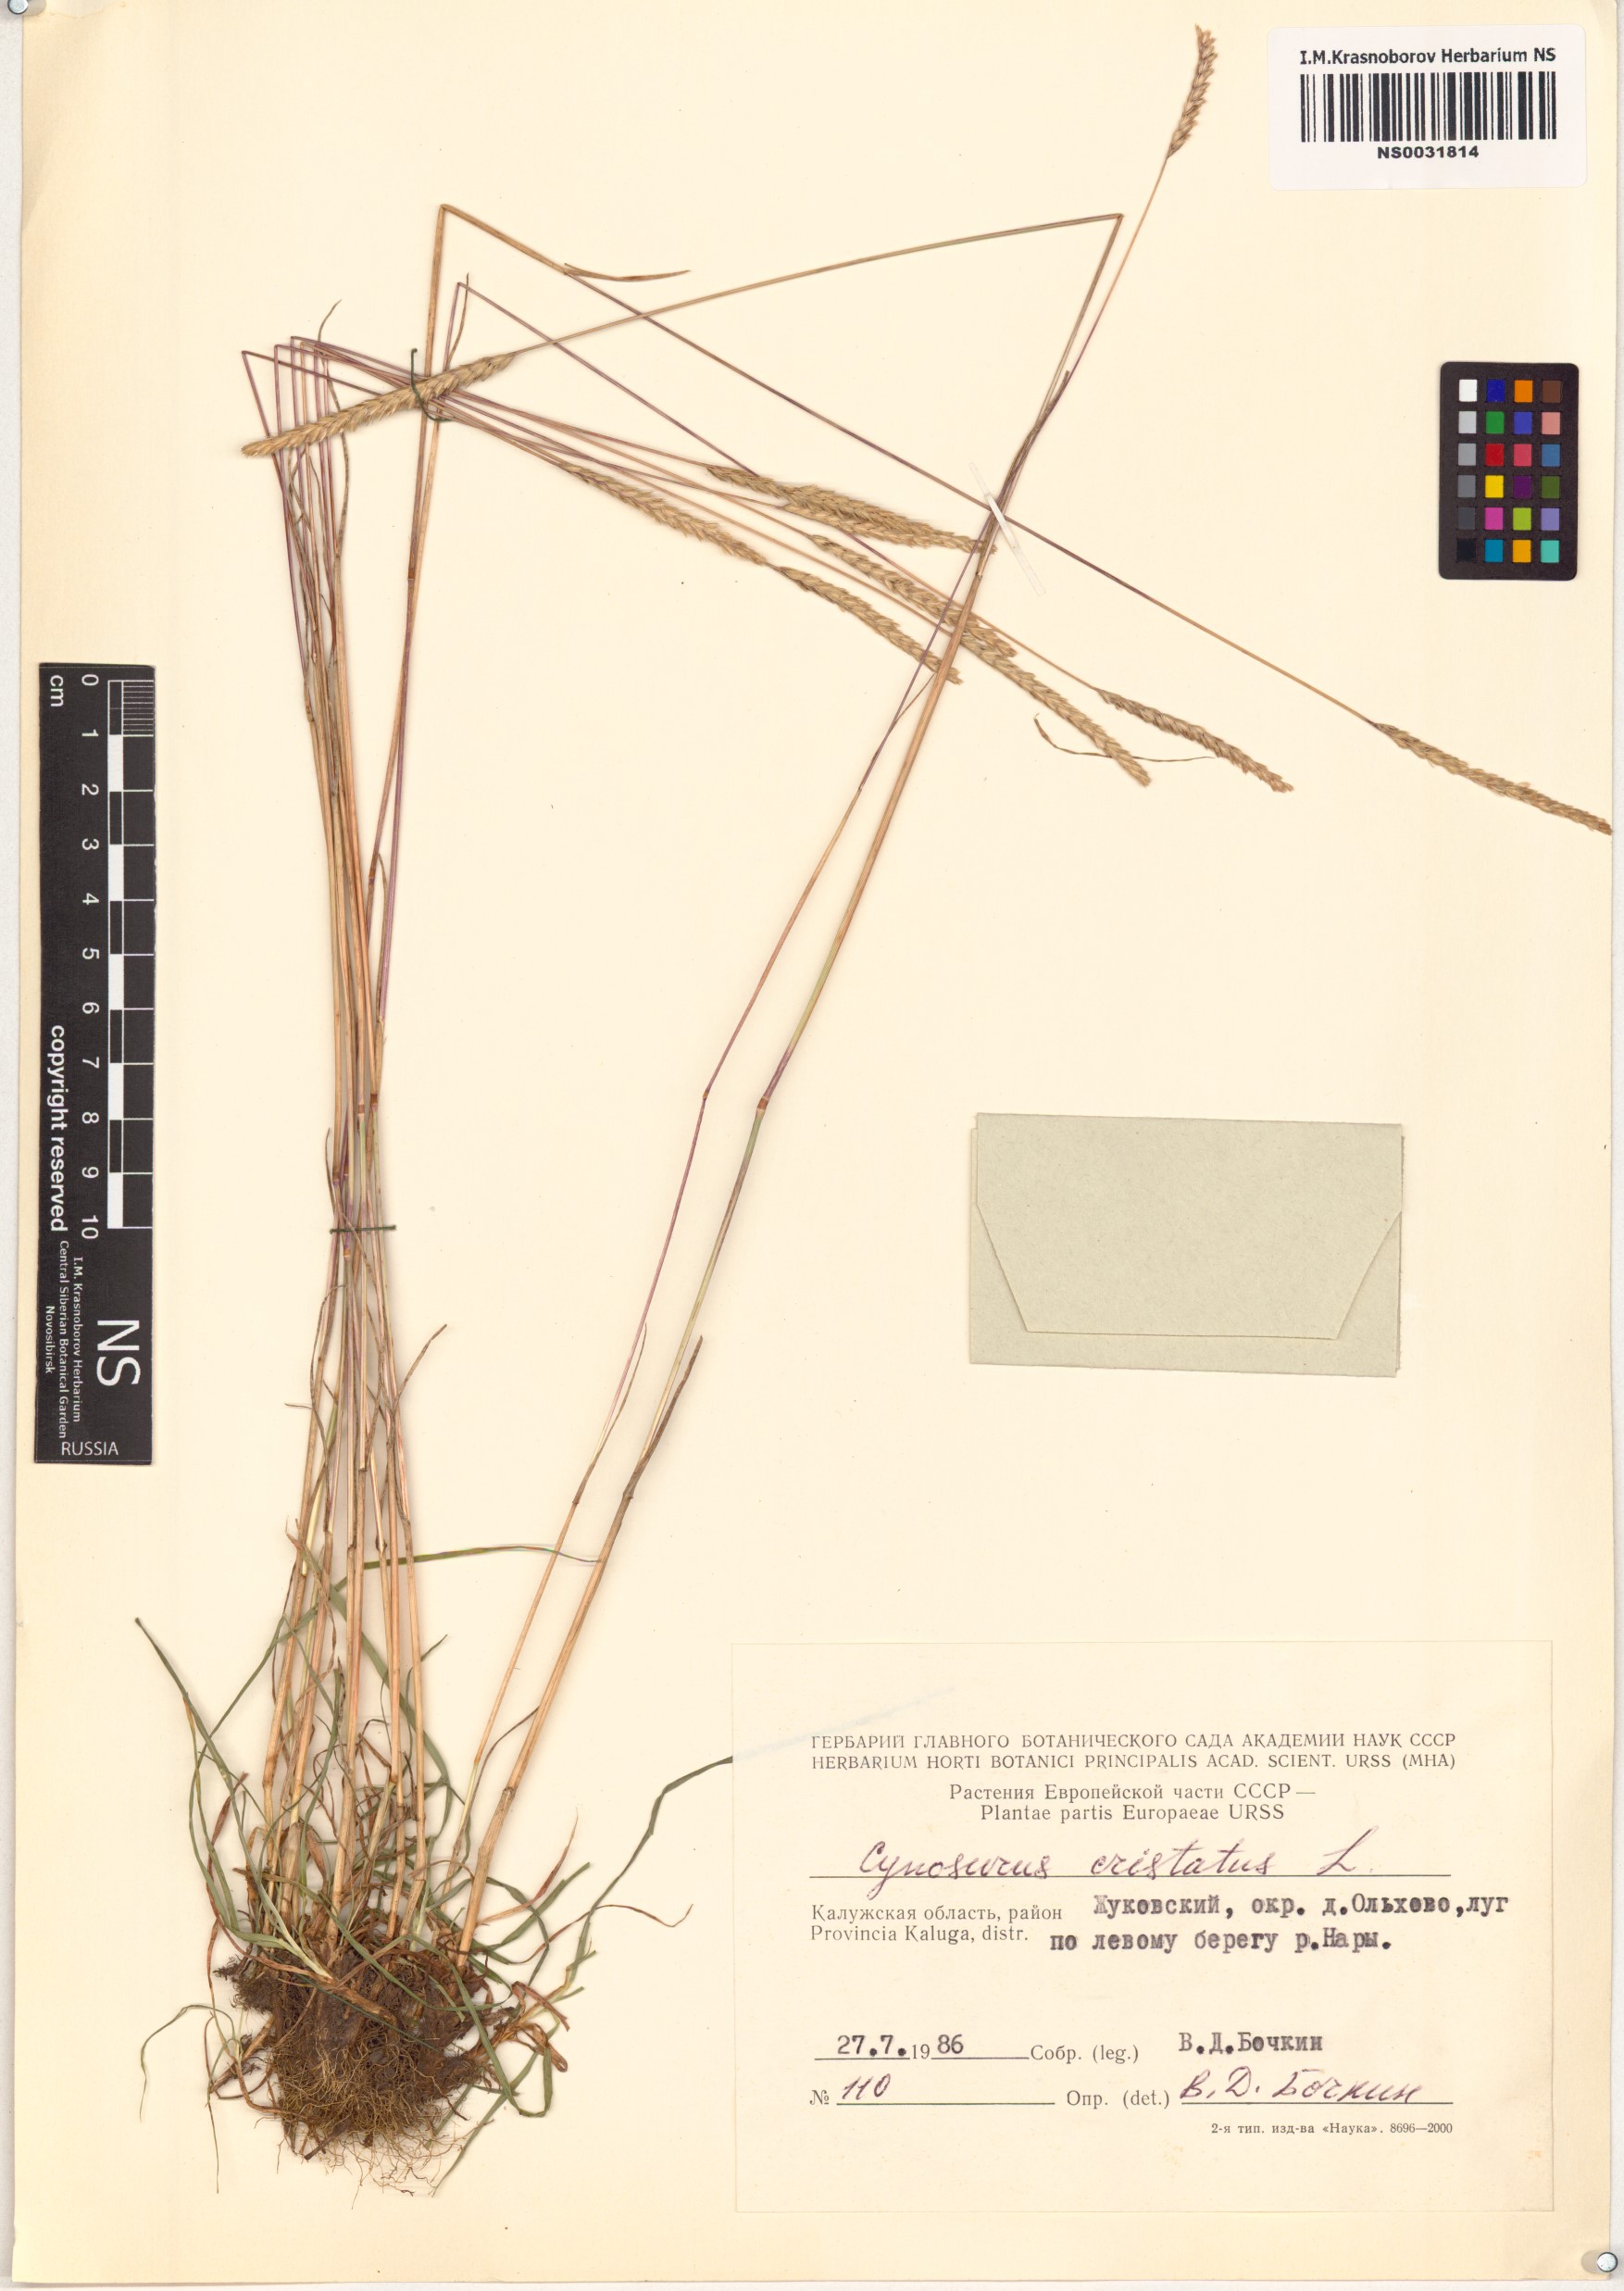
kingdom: Plantae
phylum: Tracheophyta
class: Liliopsida
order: Poales
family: Poaceae
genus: Cynosurus
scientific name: Cynosurus cristatus
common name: Crested dog's-tail
